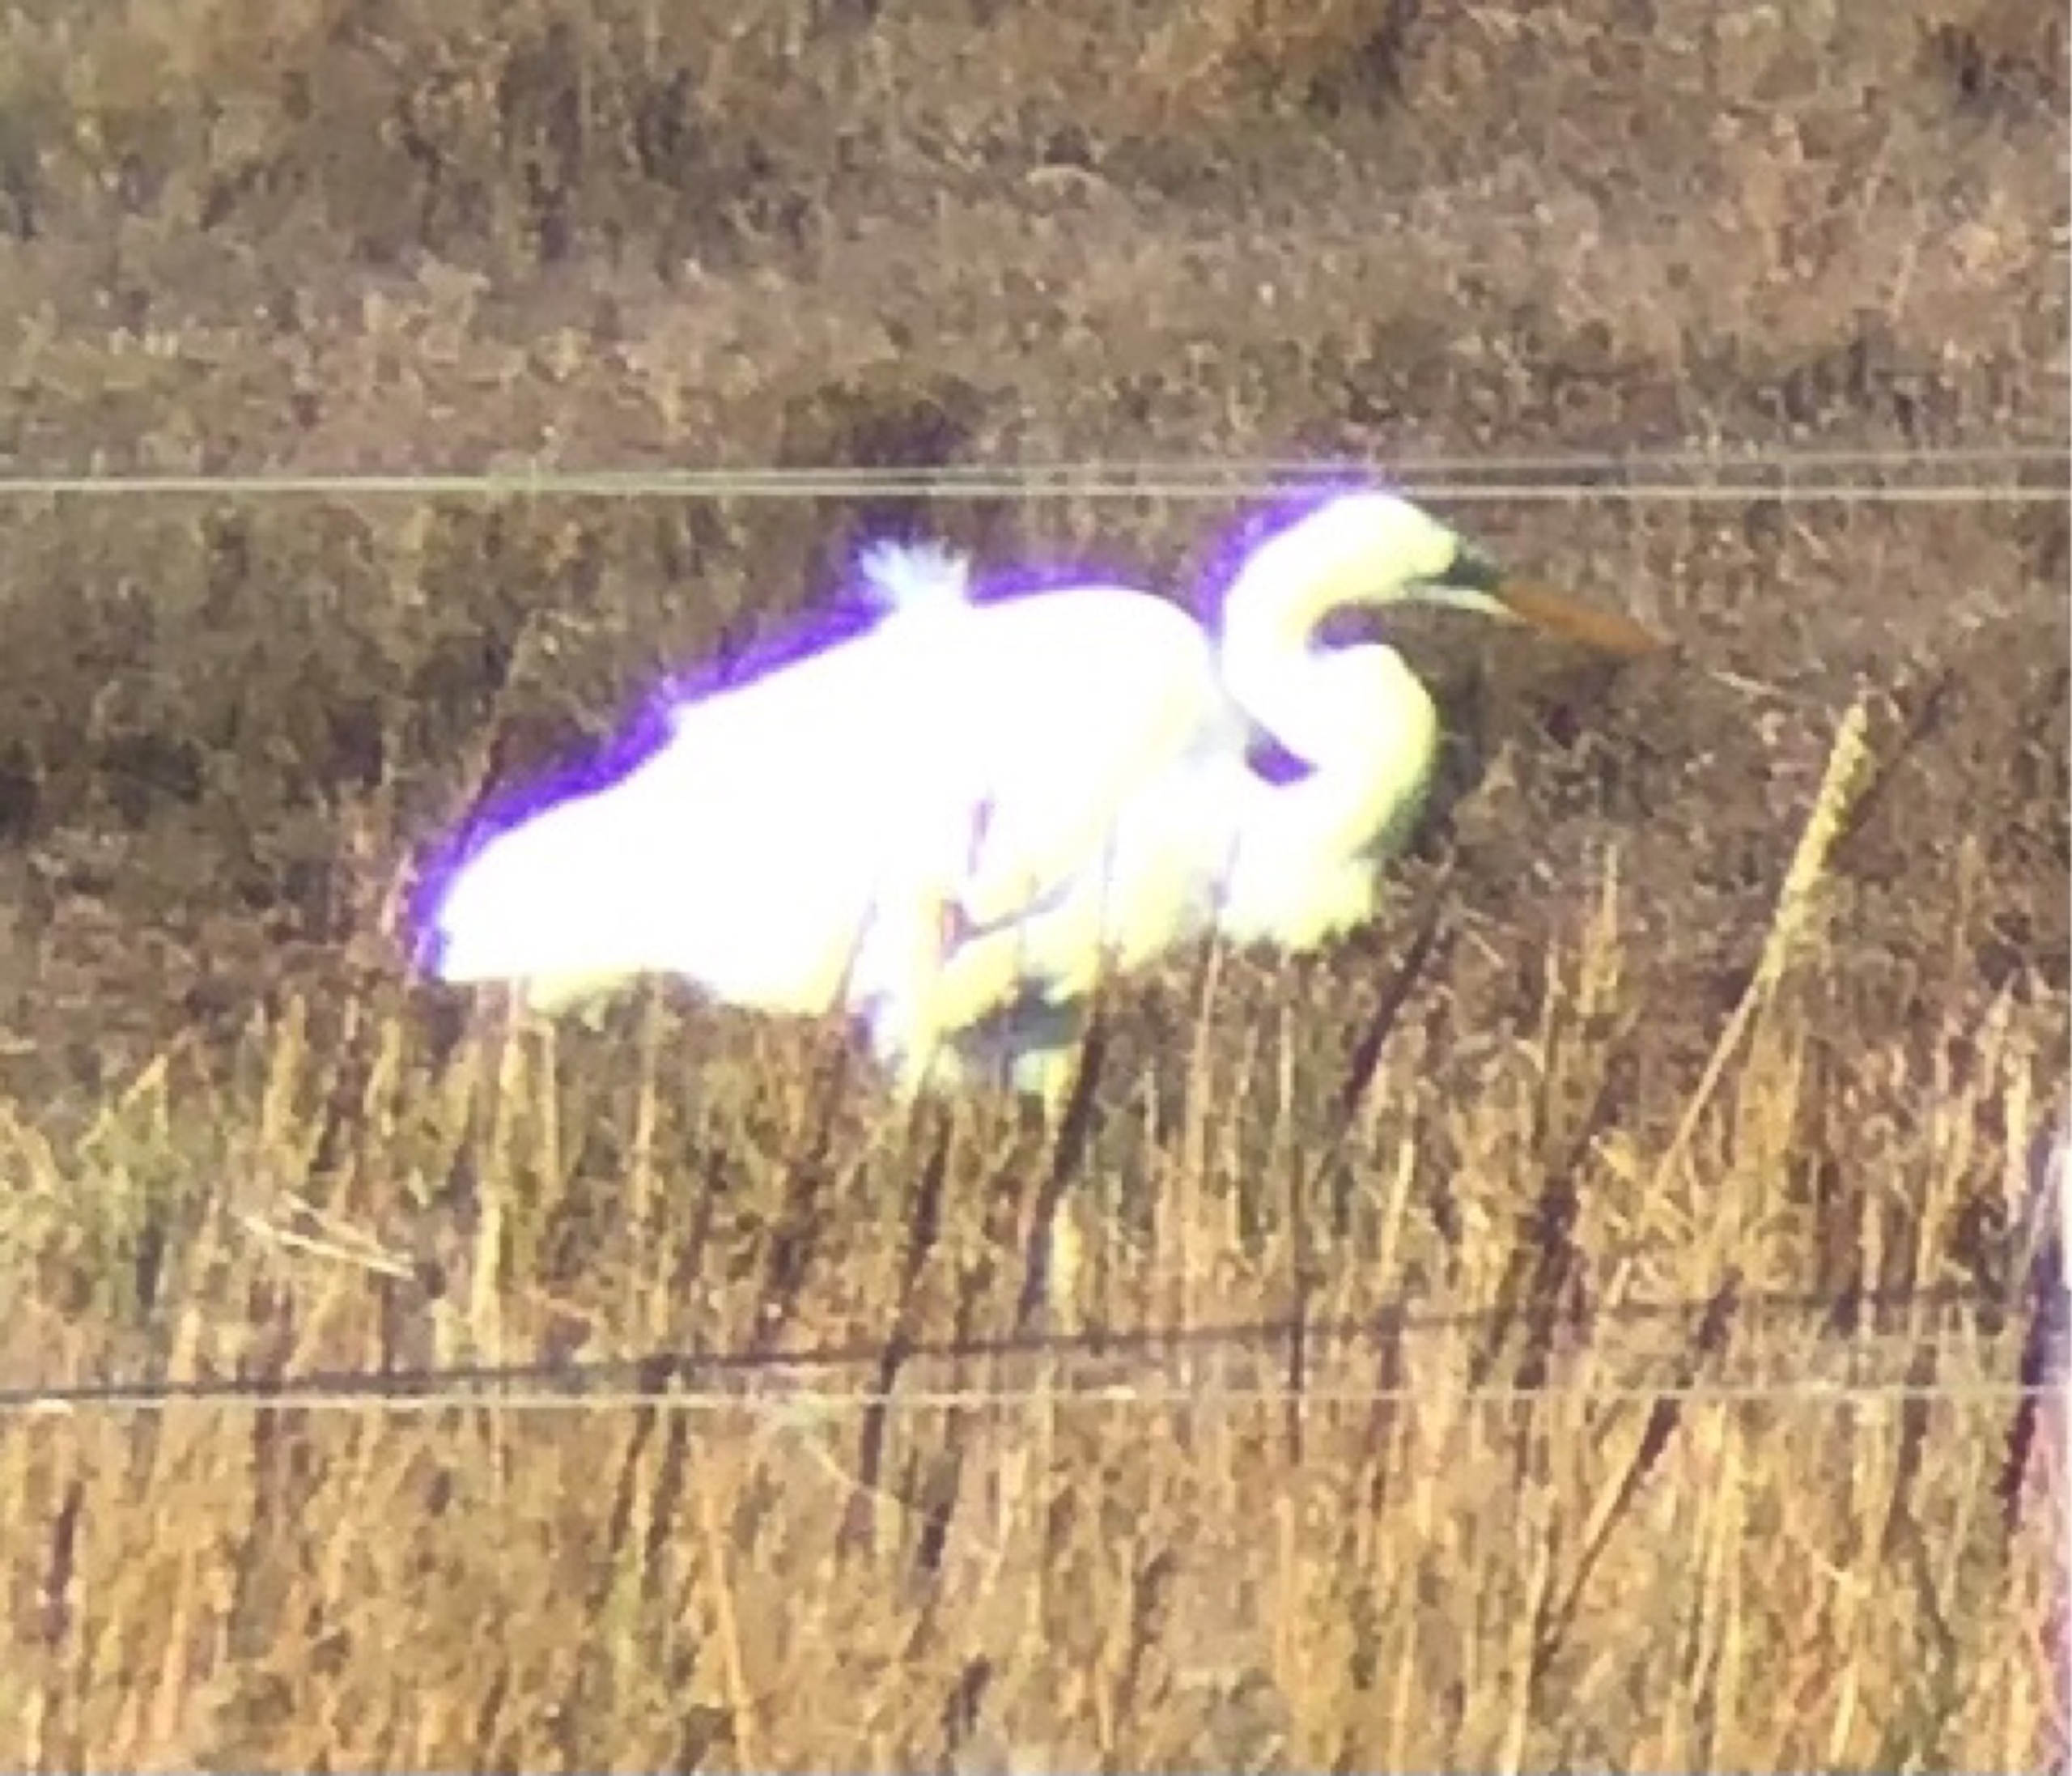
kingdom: Animalia
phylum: Chordata
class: Aves
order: Pelecaniformes
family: Ardeidae
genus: Egretta
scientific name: Egretta garzetta
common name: Silkehejre
